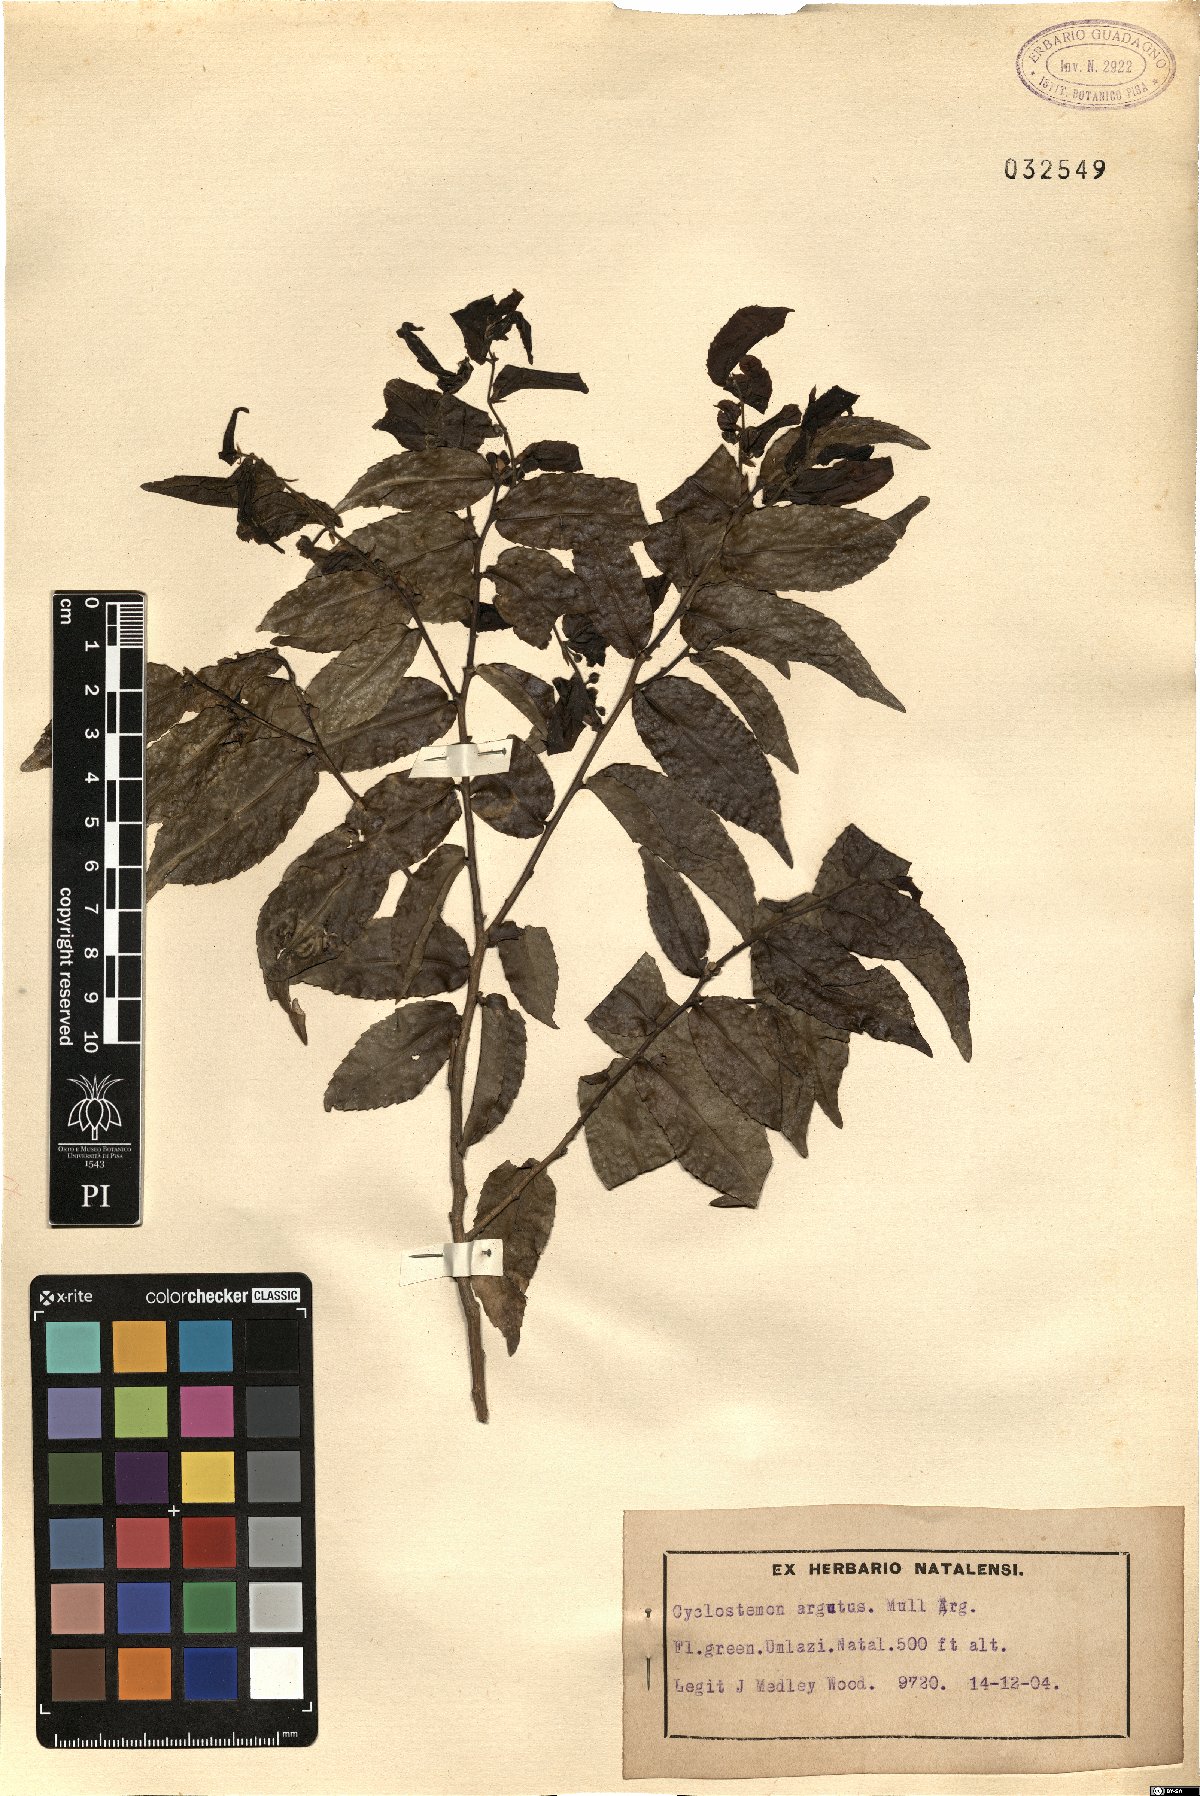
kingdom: Plantae
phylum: Tracheophyta
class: Magnoliopsida
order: Malpighiales
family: Putranjivaceae
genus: Drypetes
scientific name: Drypetes arguta
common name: Water ironplum
